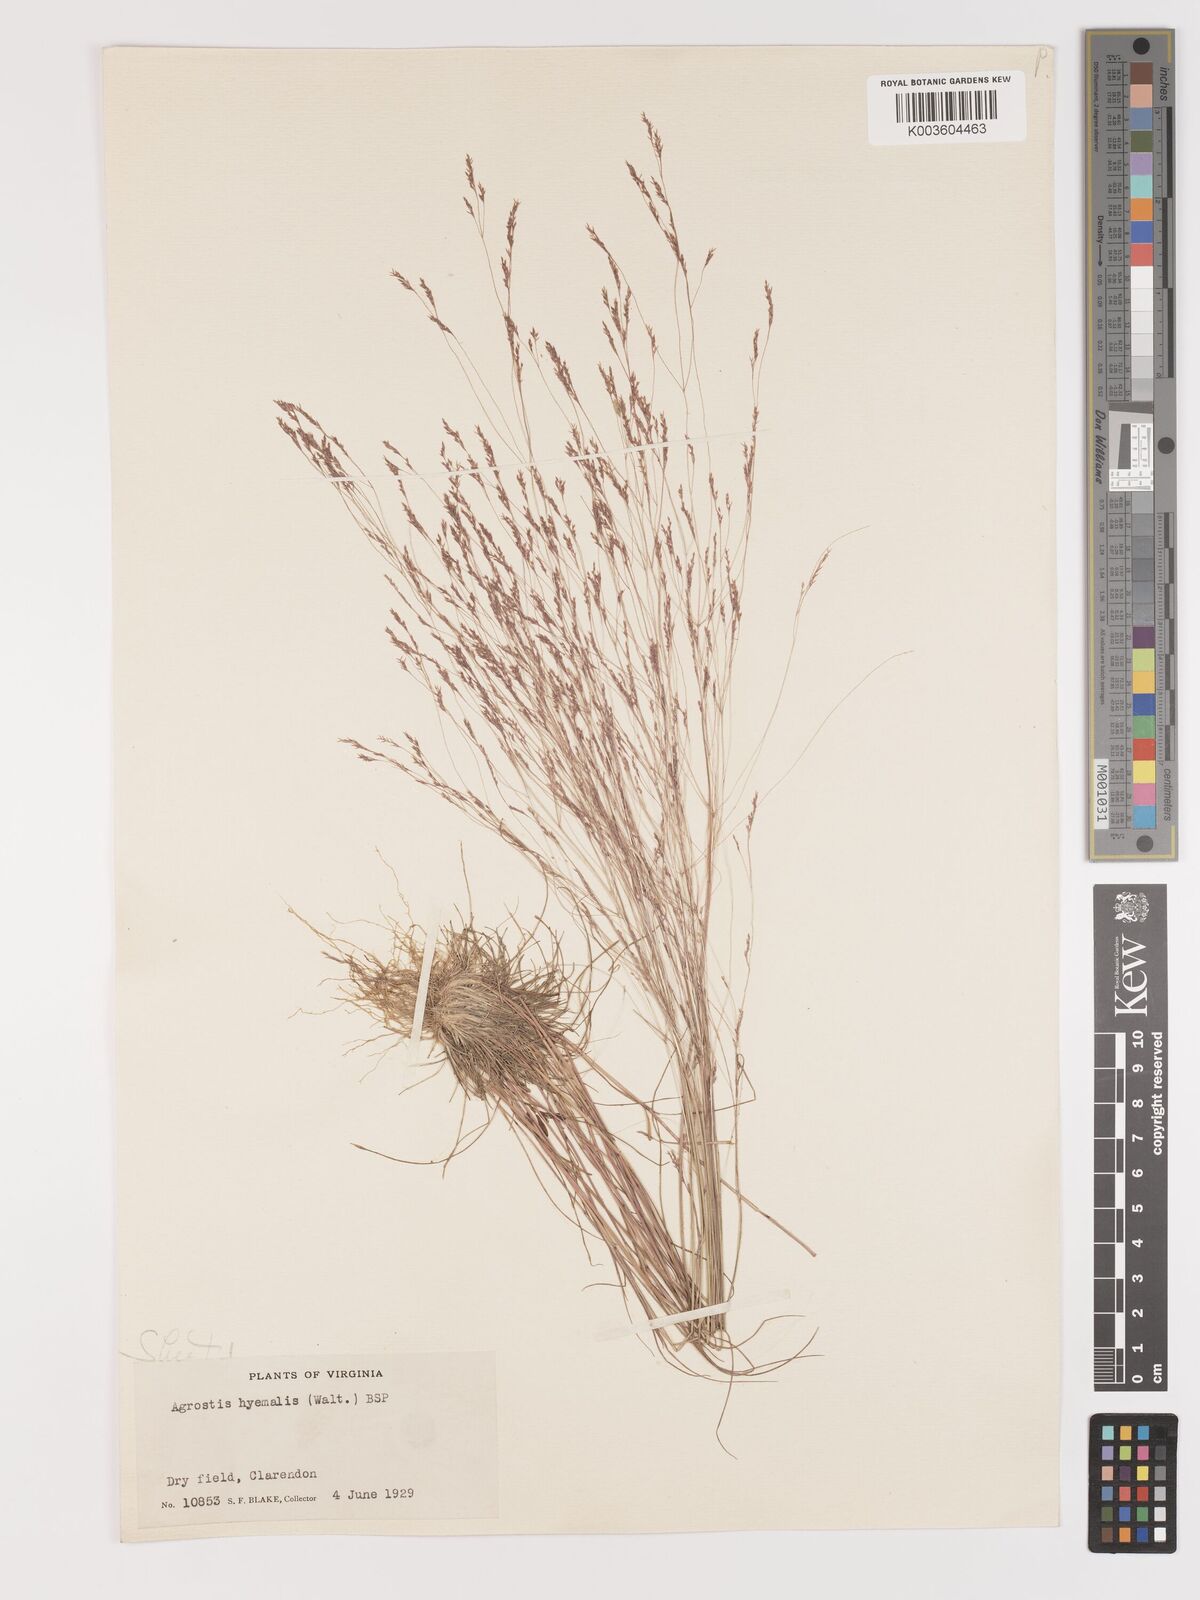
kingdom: Plantae
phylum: Tracheophyta
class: Liliopsida
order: Poales
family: Poaceae
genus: Agrostis
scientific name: Agrostis hyemalis
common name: Small bent
